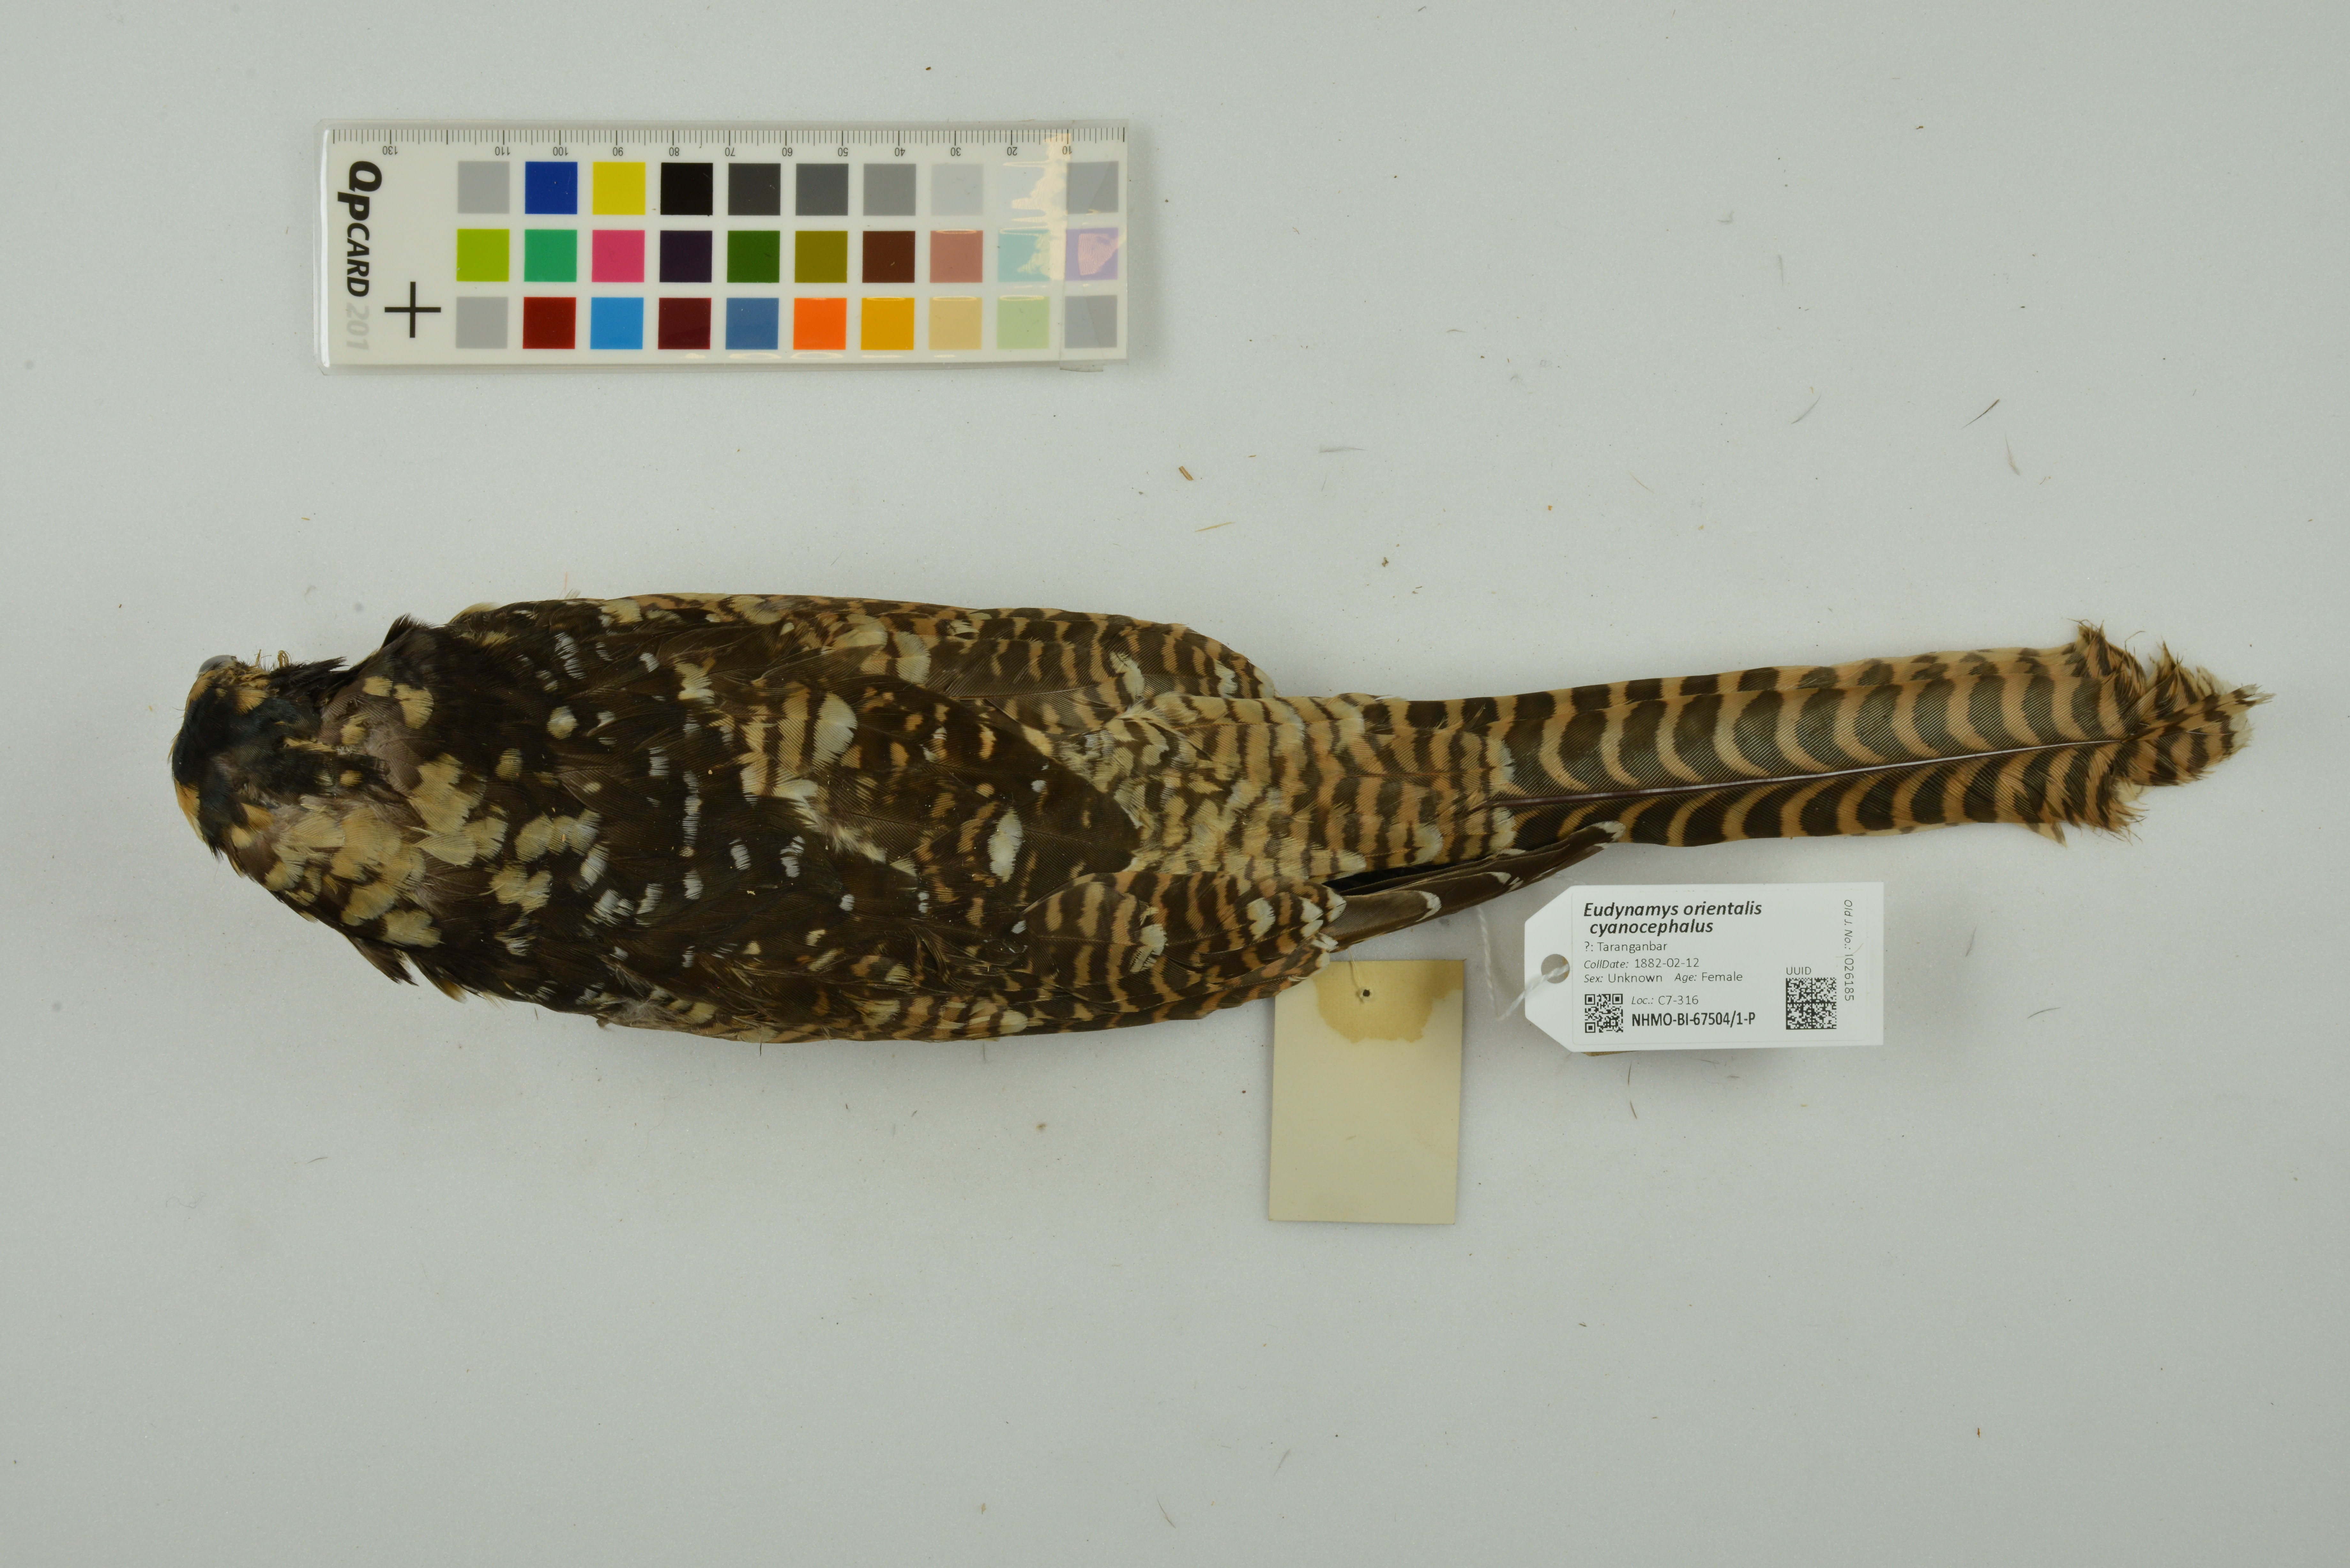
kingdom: Animalia
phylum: Chordata
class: Aves
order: Cuculiformes
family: Cuculidae
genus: Eudynamys
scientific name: Eudynamys scolopaceus
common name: Asian koel
